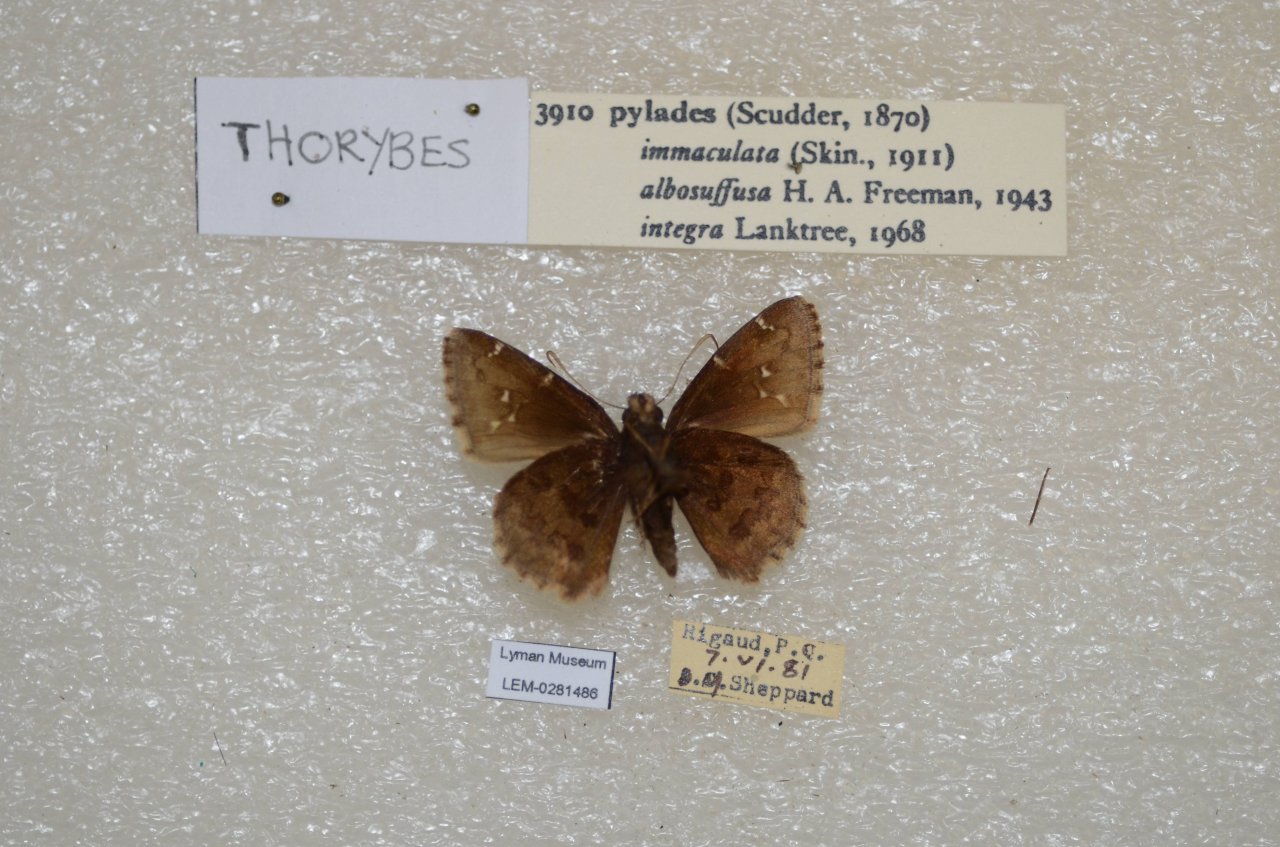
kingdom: Animalia
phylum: Arthropoda
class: Insecta
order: Lepidoptera
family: Hesperiidae
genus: Autochton
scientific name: Autochton
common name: Northern Cloudywing
